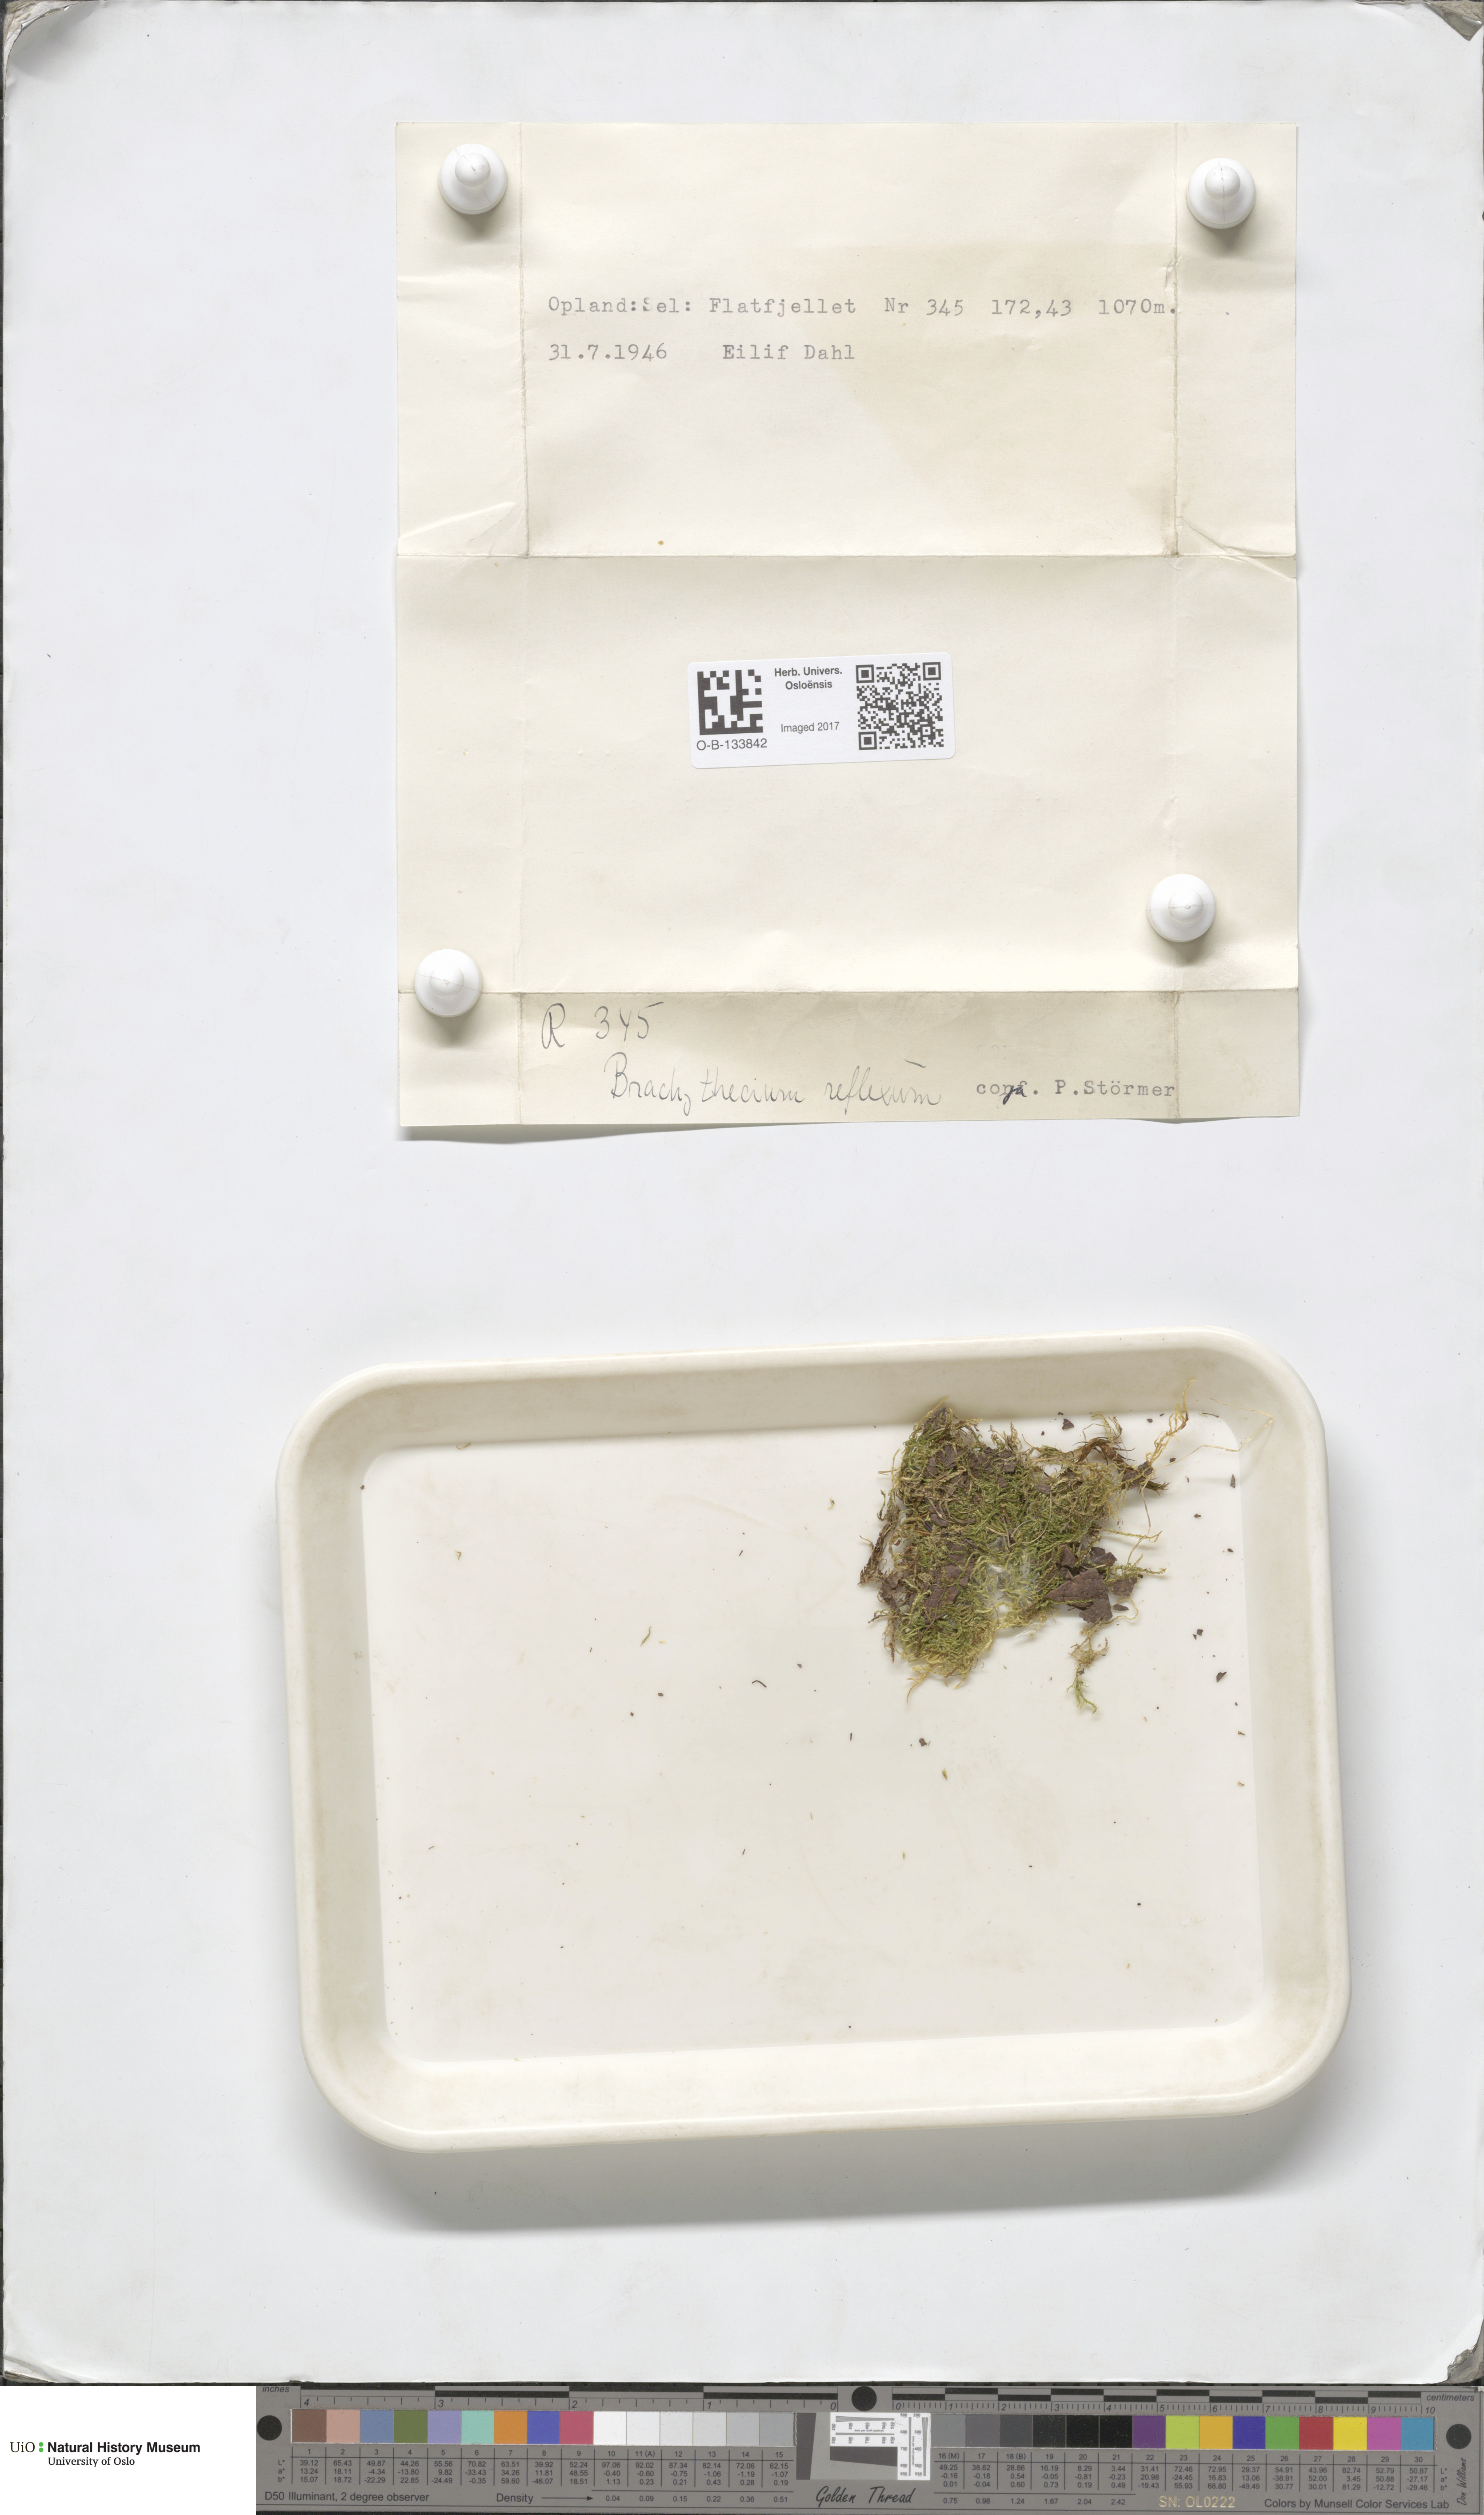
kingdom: Plantae
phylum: Bryophyta
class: Bryopsida
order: Hypnales
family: Brachytheciaceae
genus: Sciuro-hypnum
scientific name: Sciuro-hypnum reflexum
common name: Reflexed feather-moss
